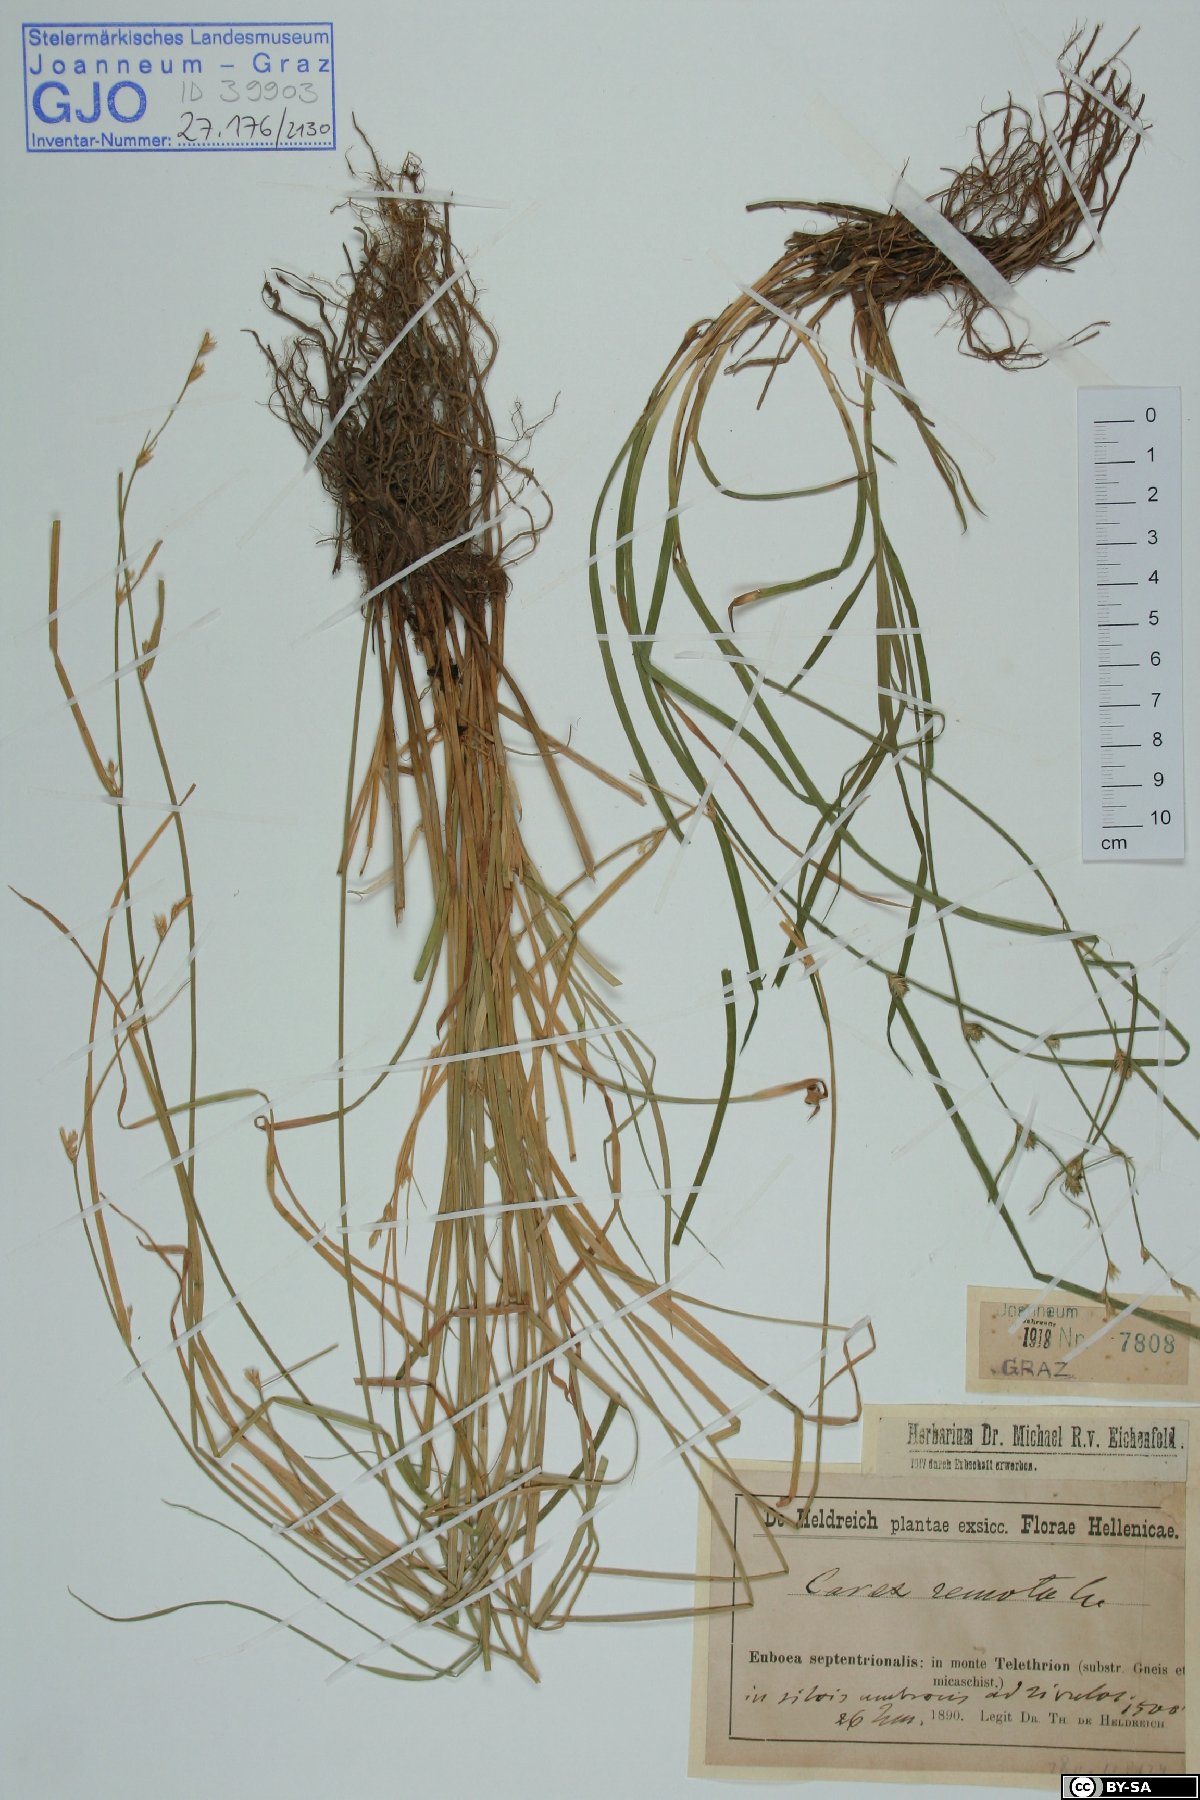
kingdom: Plantae
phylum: Tracheophyta
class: Liliopsida
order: Poales
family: Cyperaceae
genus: Carex
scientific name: Carex remota
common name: Remote sedge
